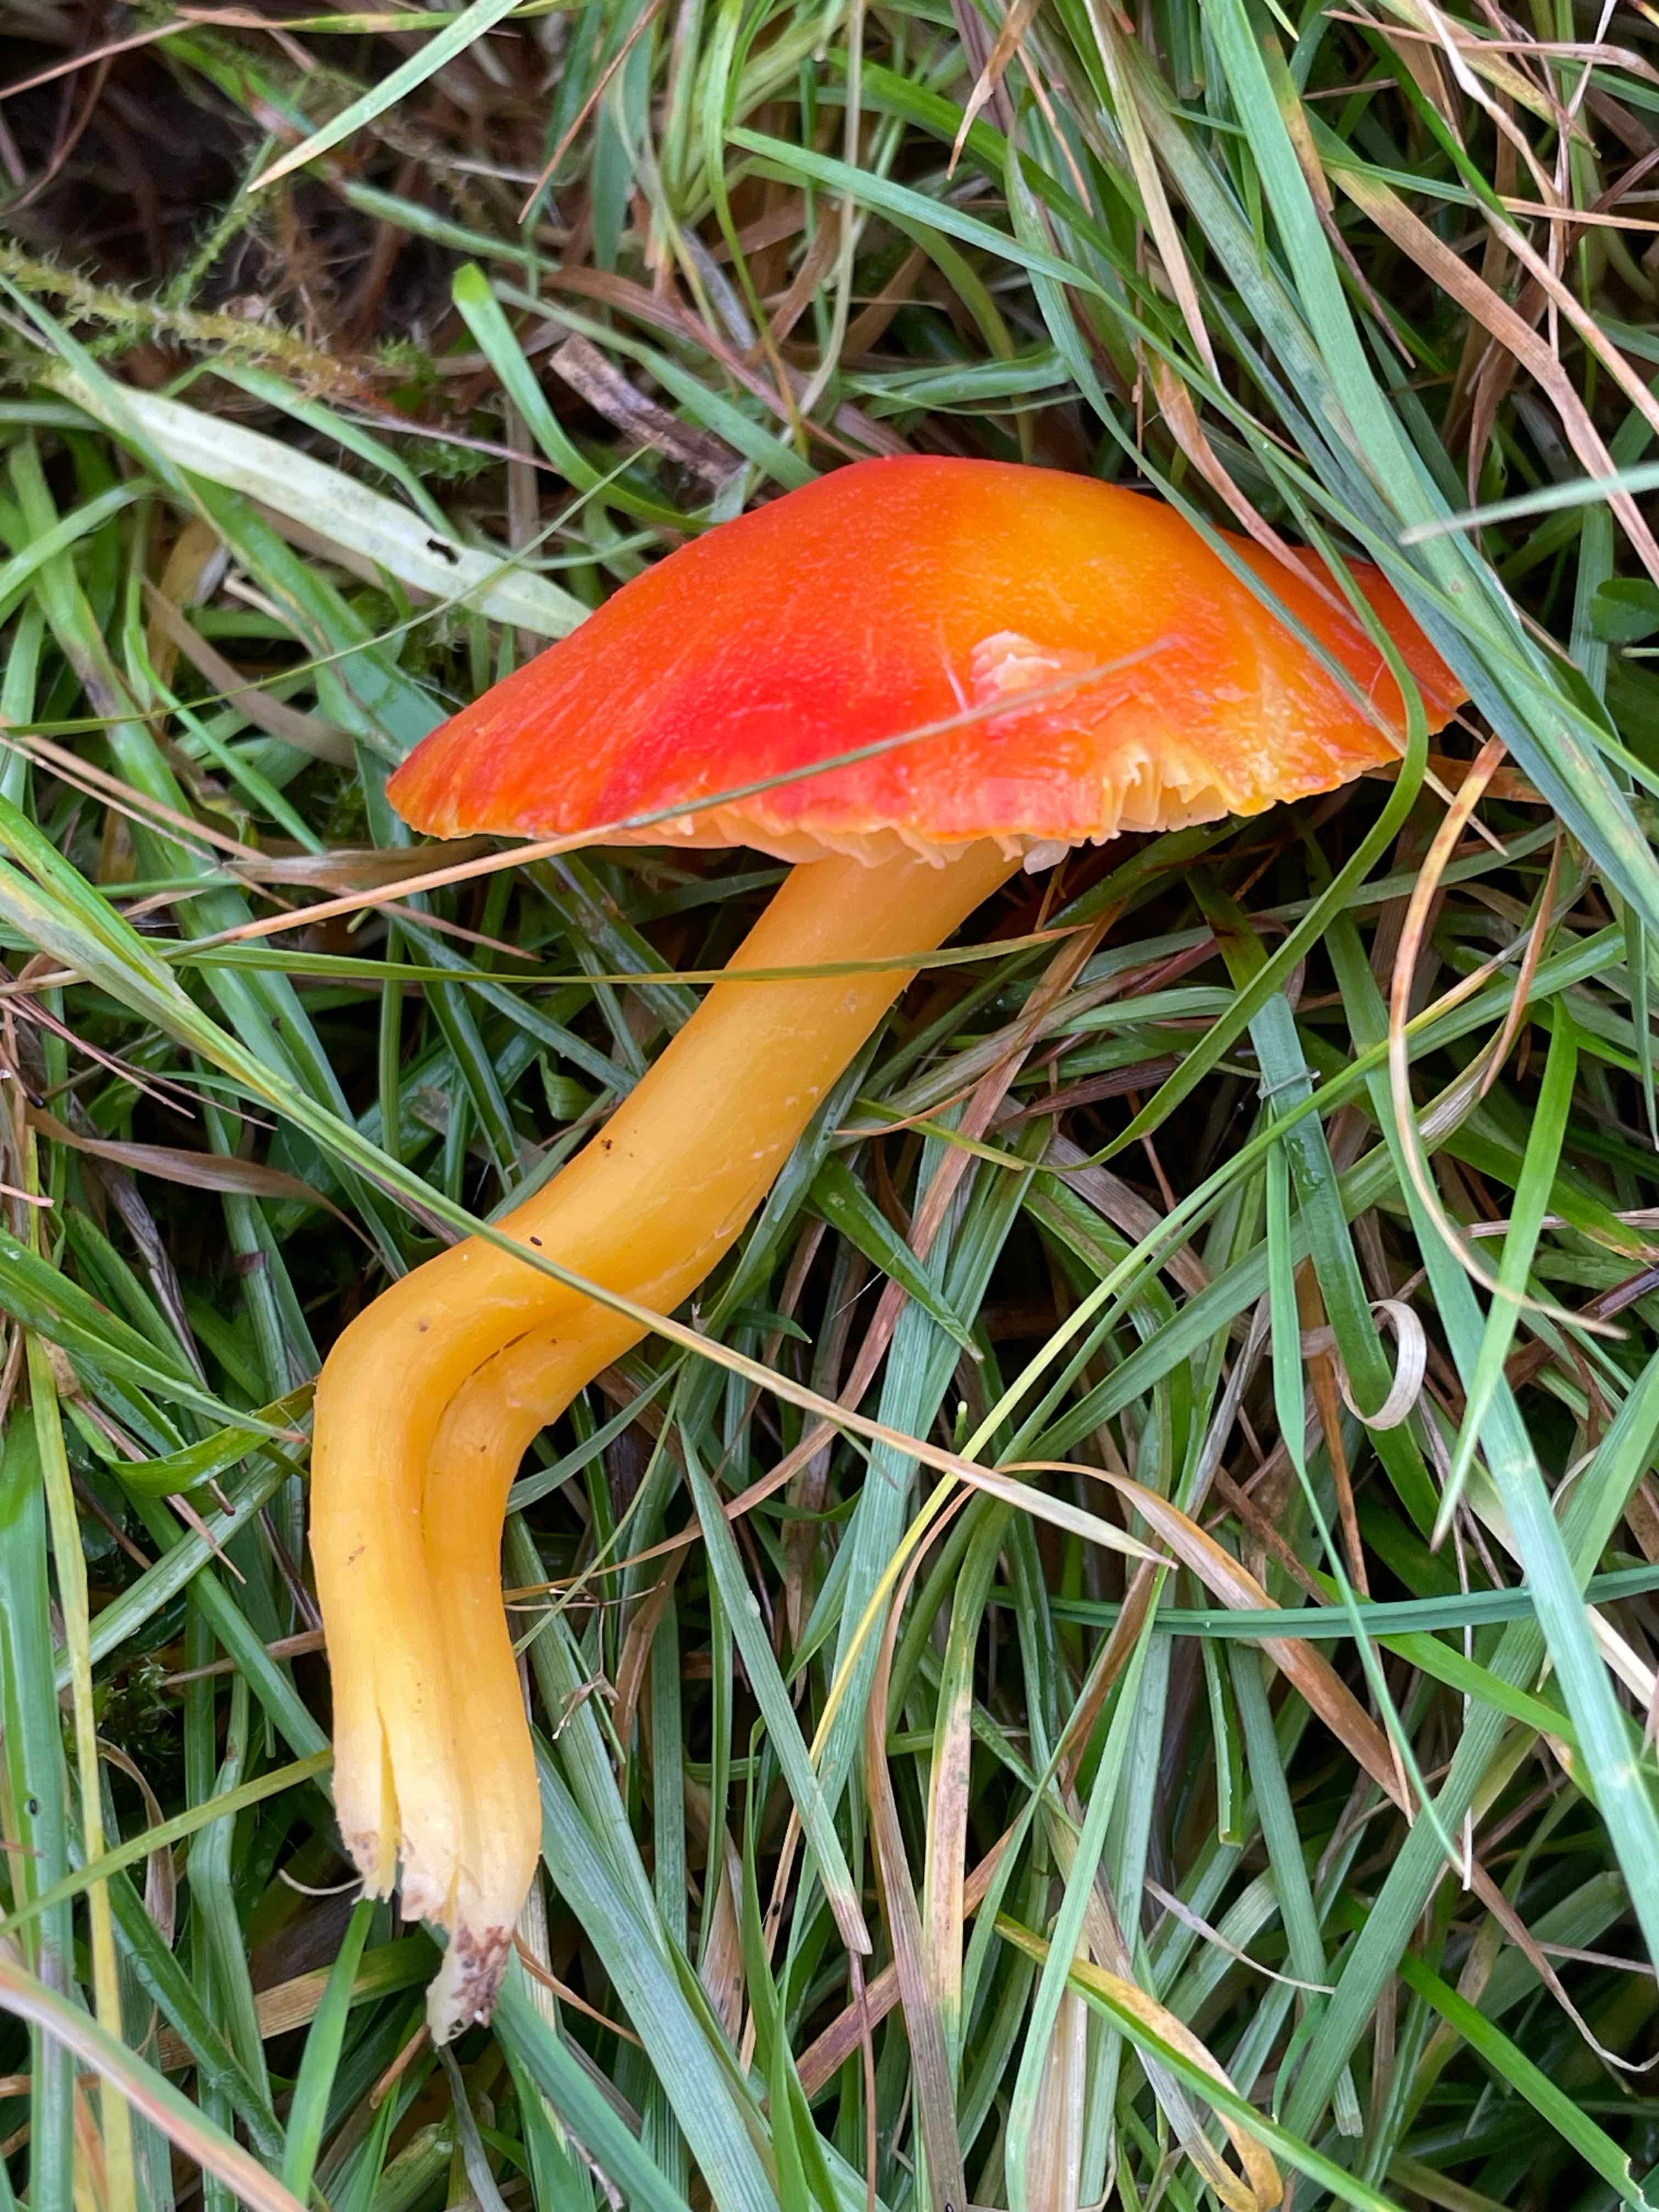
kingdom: Fungi
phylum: Basidiomycota
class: Agaricomycetes
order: Agaricales
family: Hygrophoraceae
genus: Hygrocybe
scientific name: Hygrocybe coccinea
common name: cinnober-vokshat
